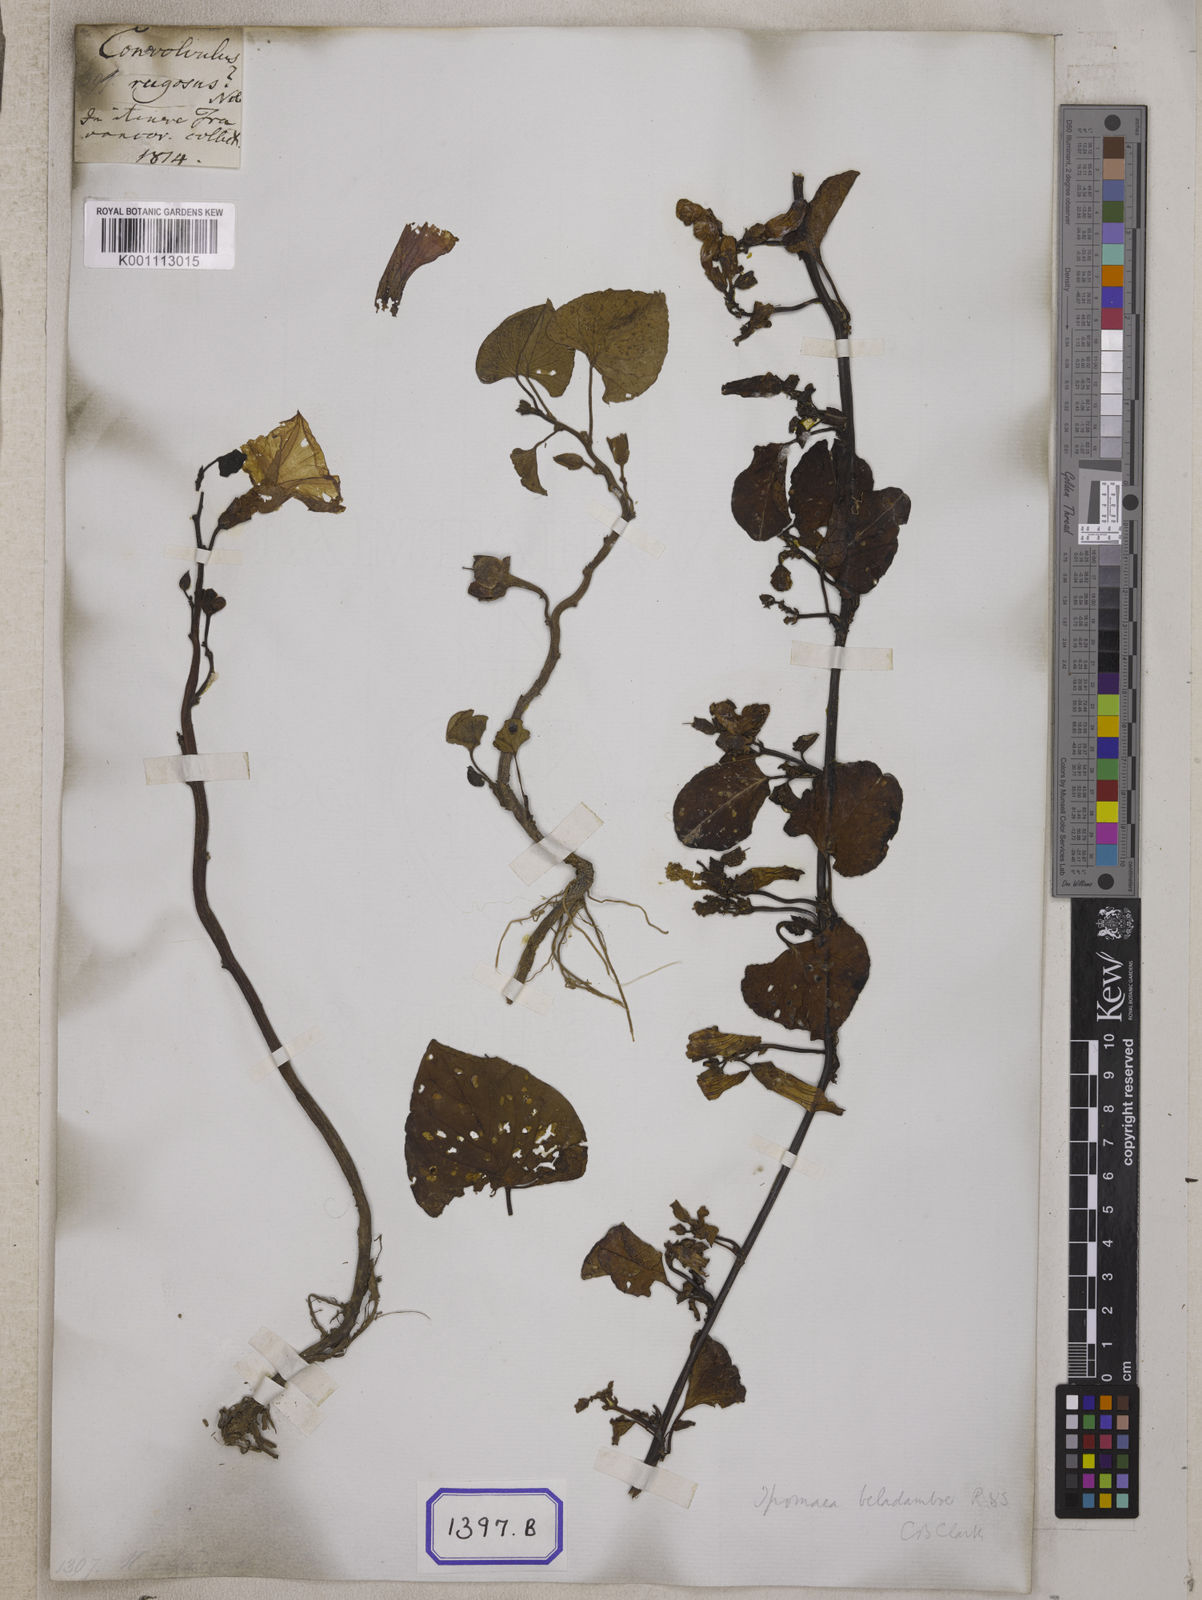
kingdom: Plantae
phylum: Tracheophyta
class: Magnoliopsida
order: Solanales
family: Convolvulaceae
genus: Ipomoea
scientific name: Ipomoea asarifolia
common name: Ginger-leaf morning-glory
